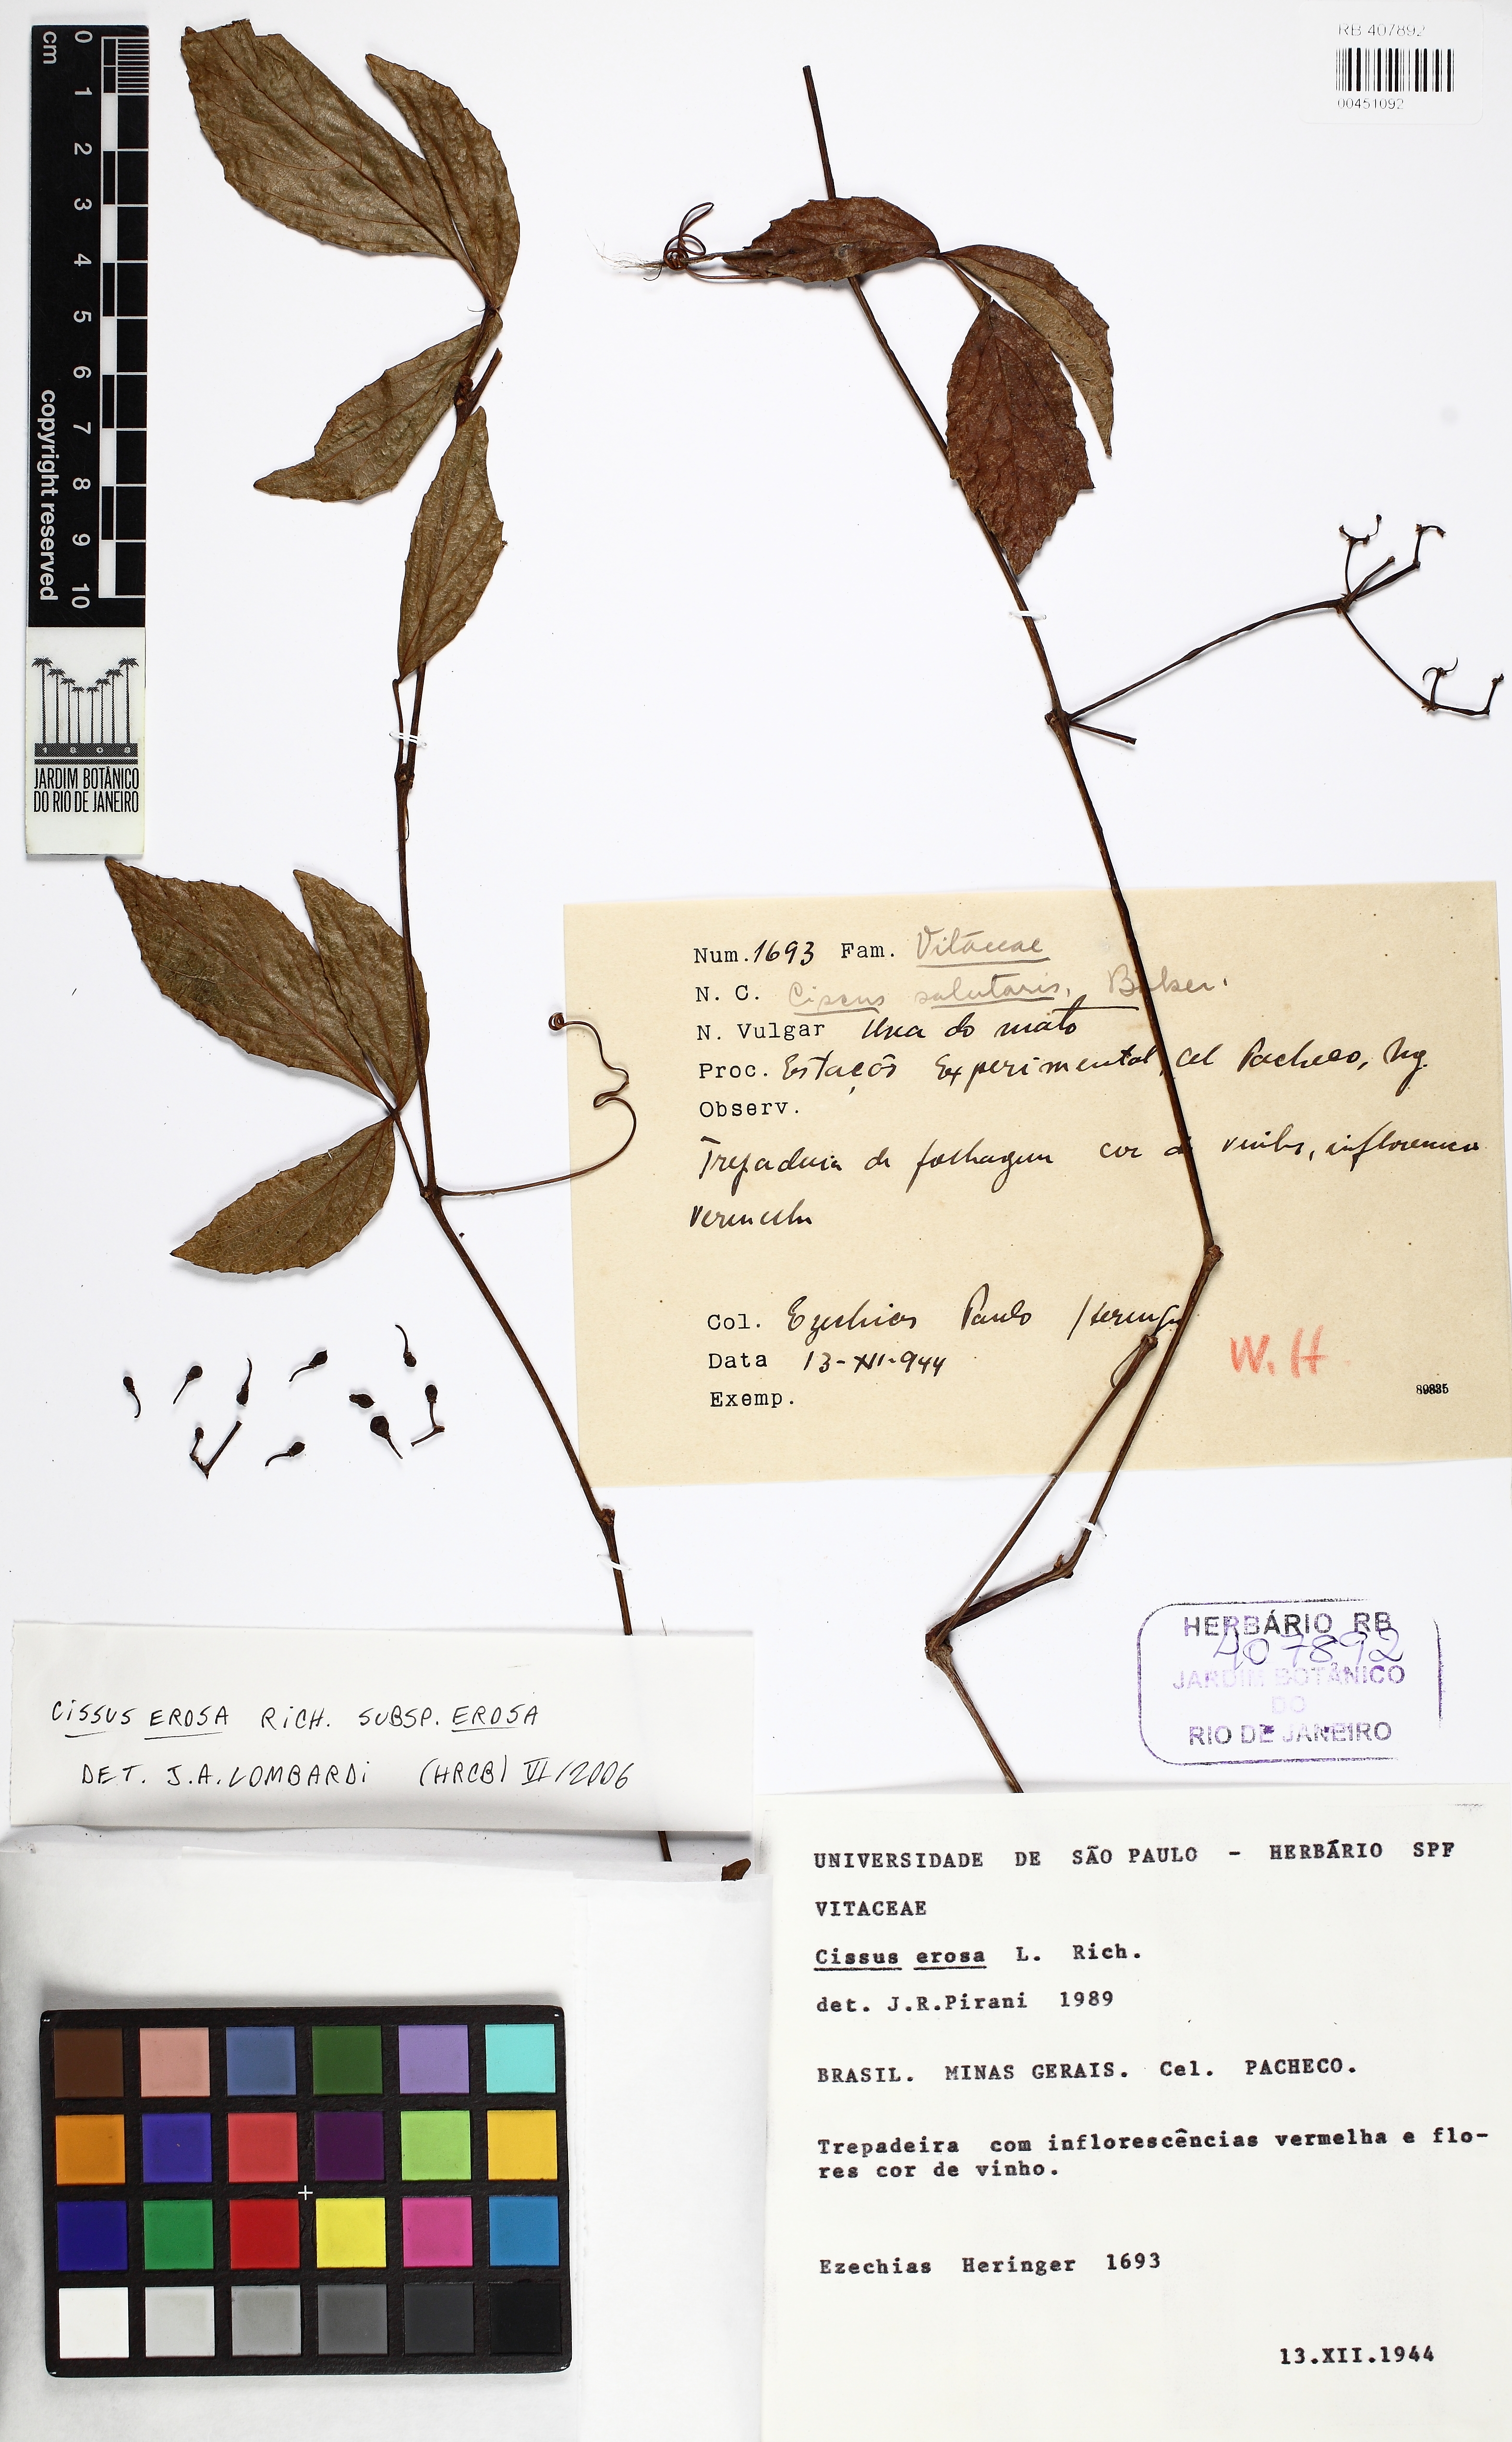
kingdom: Plantae
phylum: Tracheophyta
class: Magnoliopsida
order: Vitales
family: Vitaceae
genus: Cissus
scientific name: Cissus erosa
